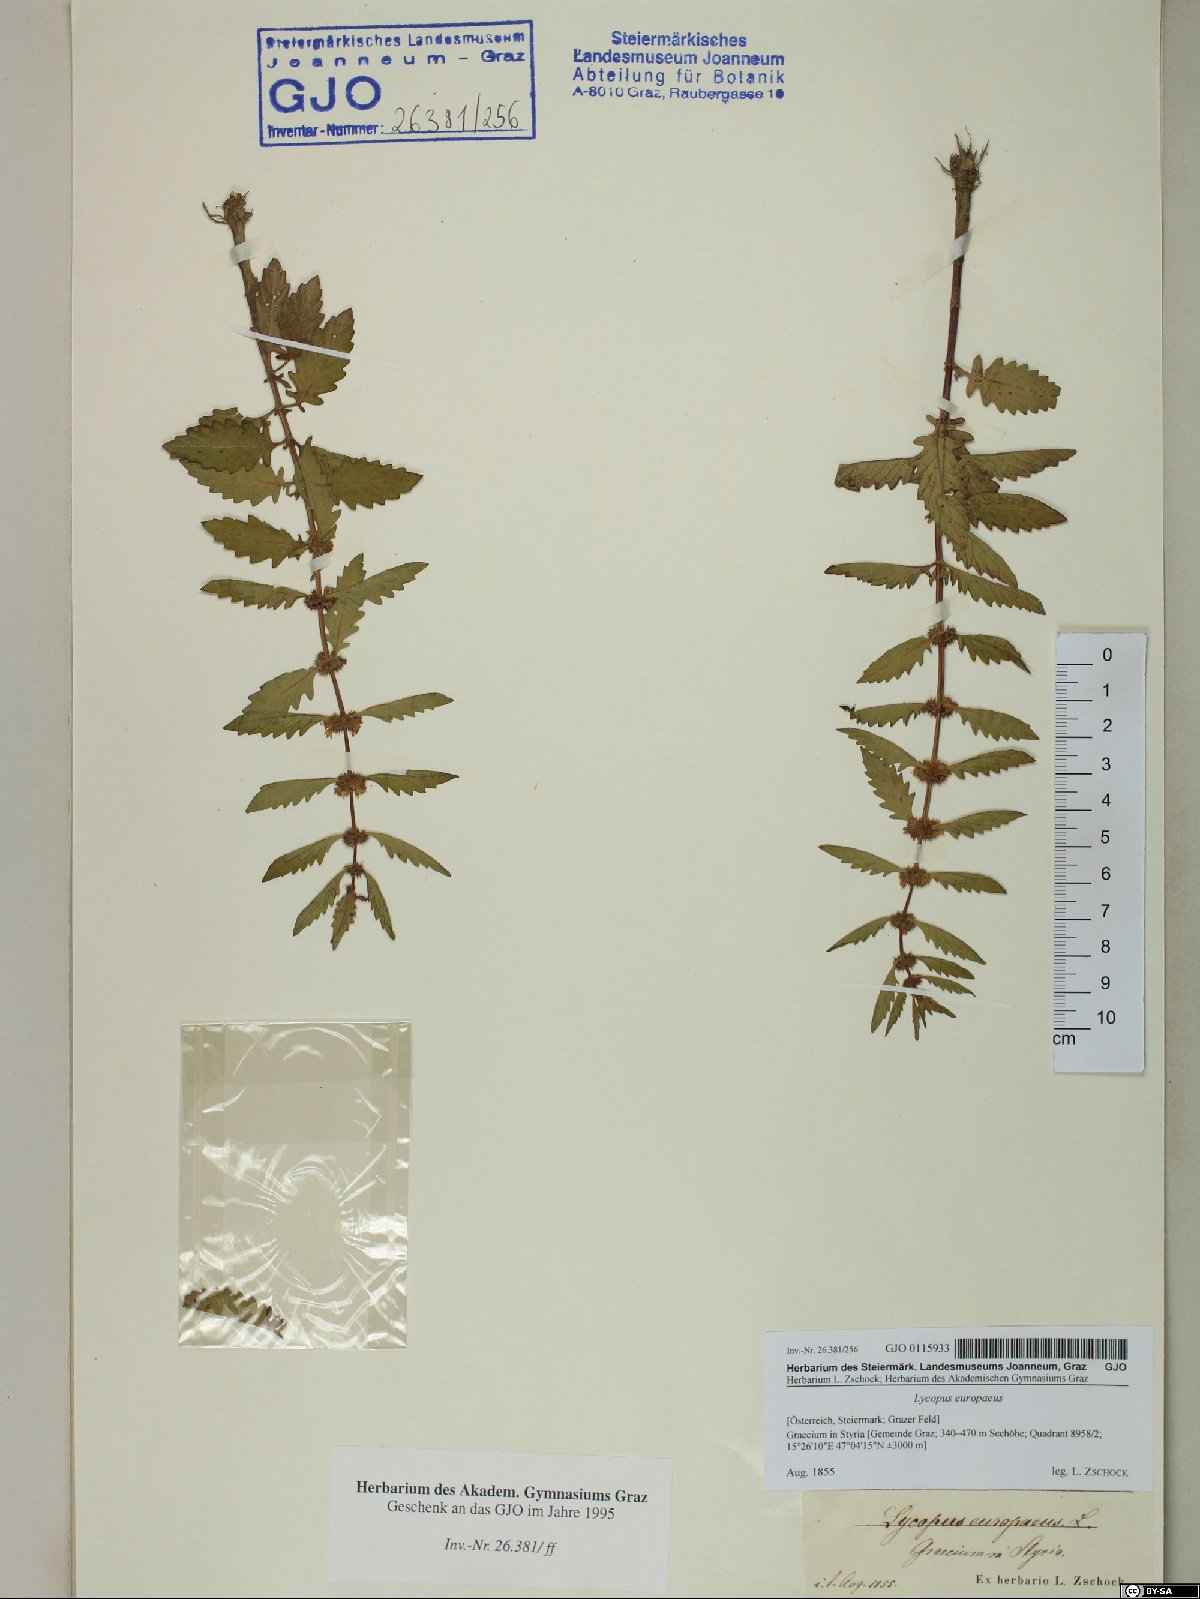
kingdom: Plantae
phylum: Tracheophyta
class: Magnoliopsida
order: Lamiales
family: Lamiaceae
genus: Lycopus
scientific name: Lycopus europaeus
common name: European bugleweed
